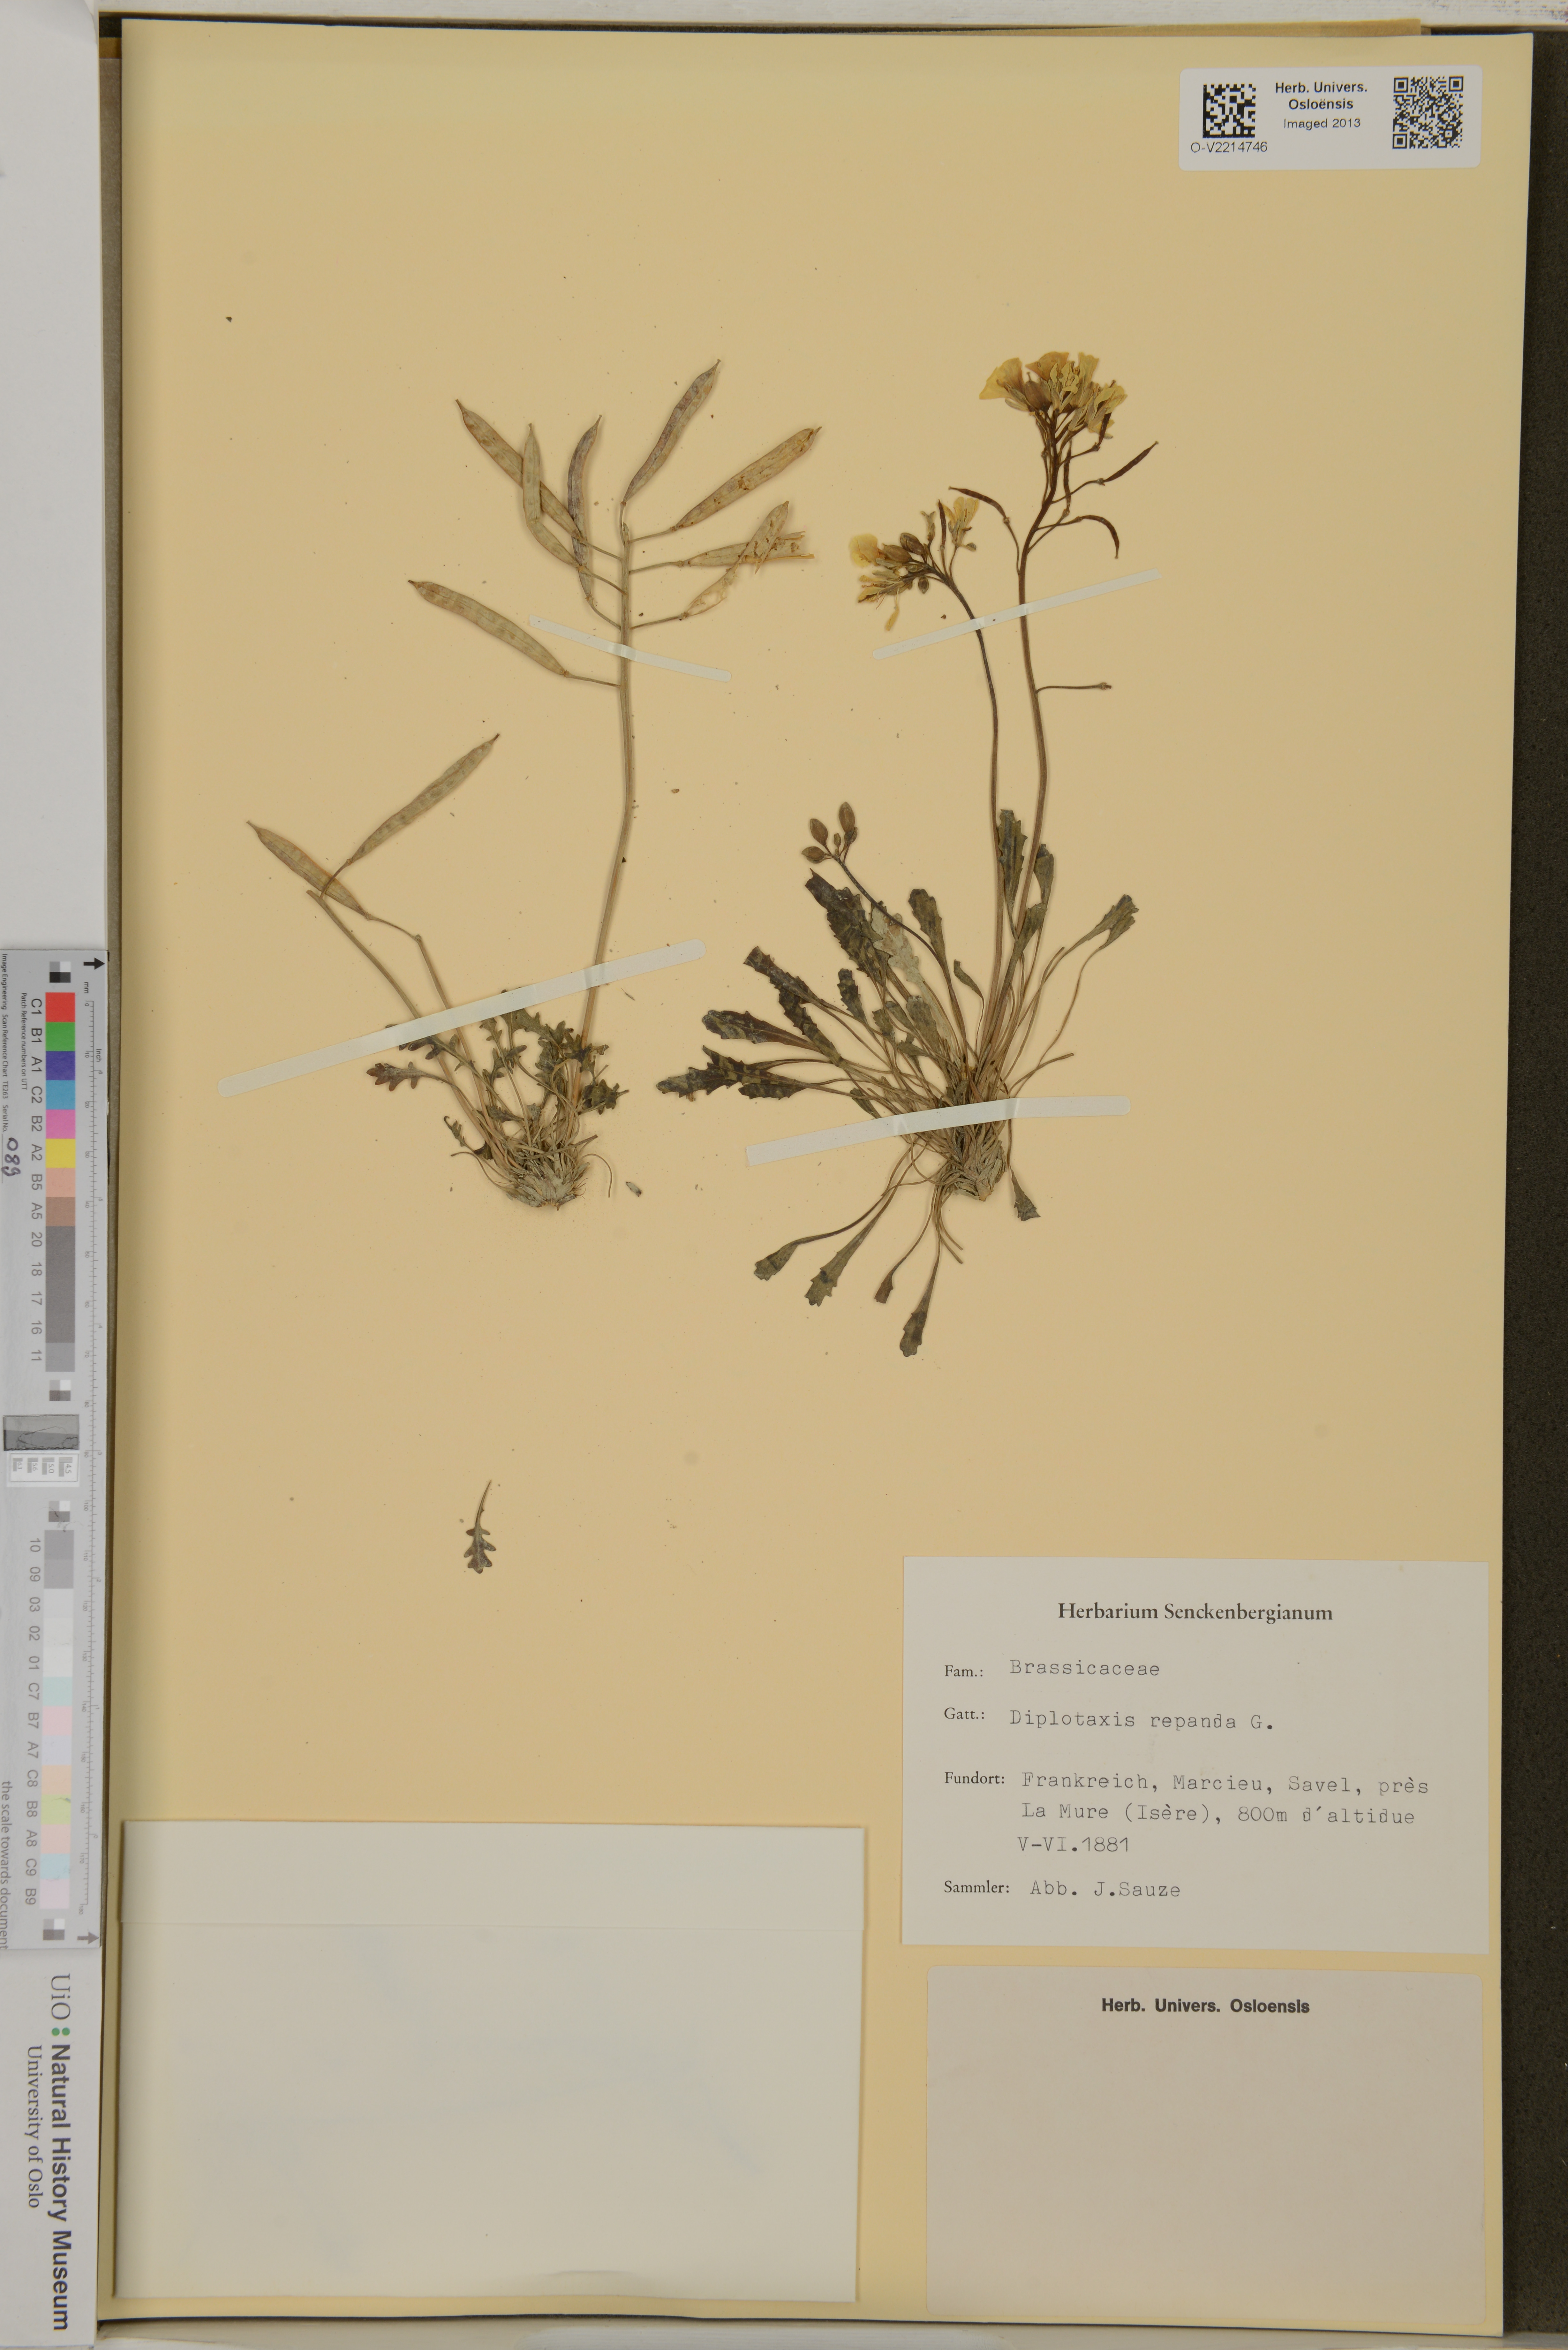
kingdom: Plantae
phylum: Tracheophyta
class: Magnoliopsida
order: Brassicales
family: Brassicaceae
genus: Brassica
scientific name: Brassica repanda
